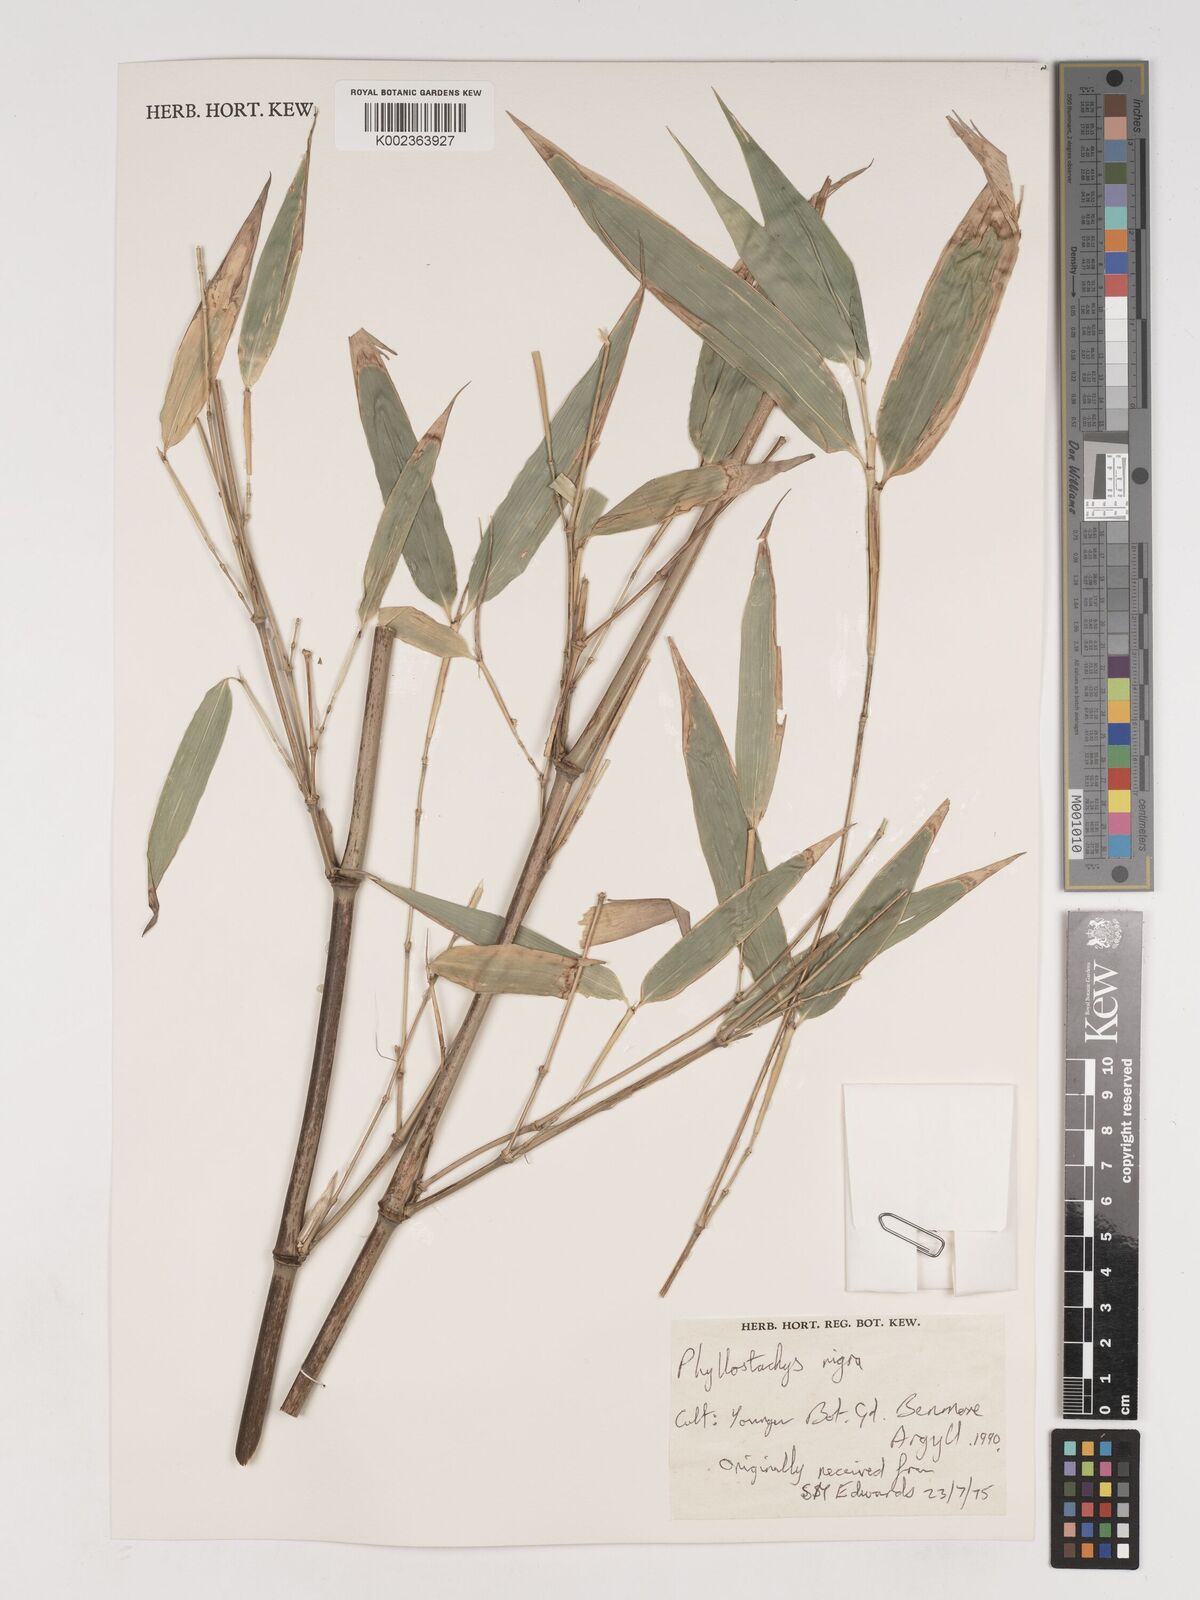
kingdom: Plantae
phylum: Tracheophyta
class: Liliopsida
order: Poales
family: Poaceae
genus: Phyllostachys
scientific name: Phyllostachys nigra
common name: Black bamboo
